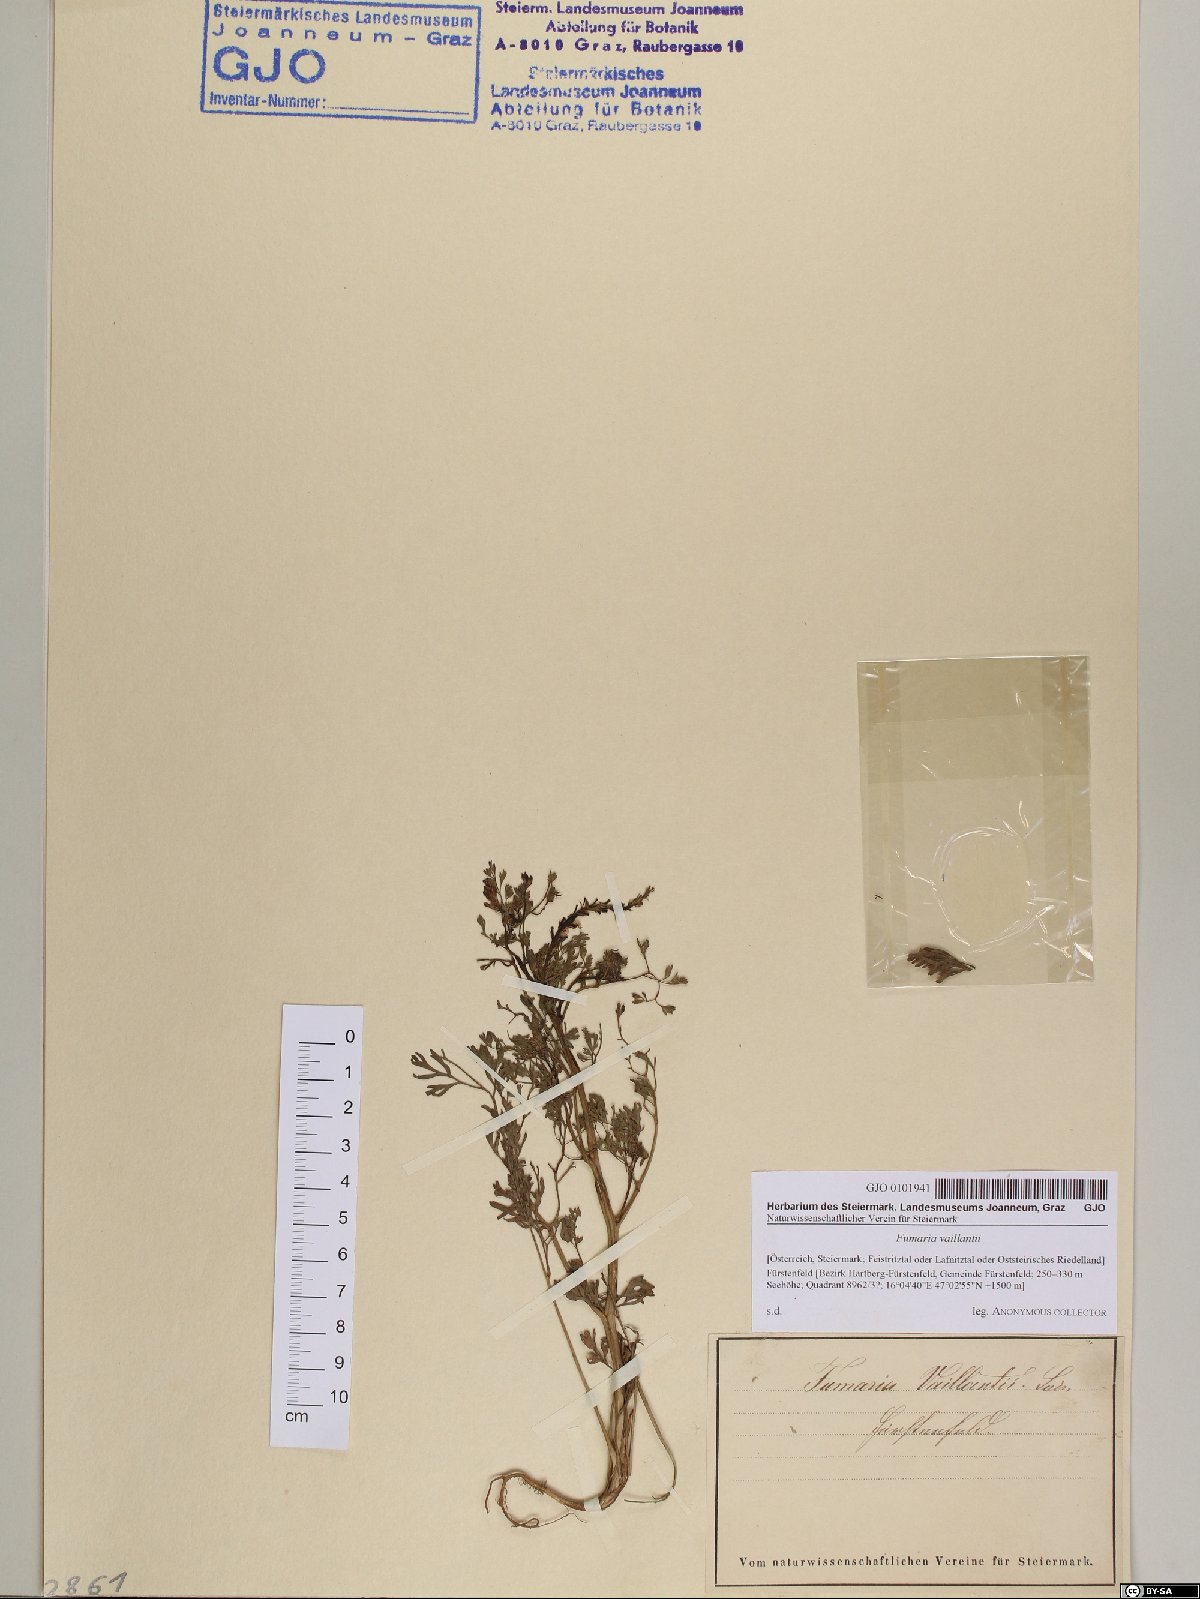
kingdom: Plantae
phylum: Tracheophyta
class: Magnoliopsida
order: Ranunculales
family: Papaveraceae
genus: Fumaria
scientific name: Fumaria vaillantii
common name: Few-flowered fumitory
